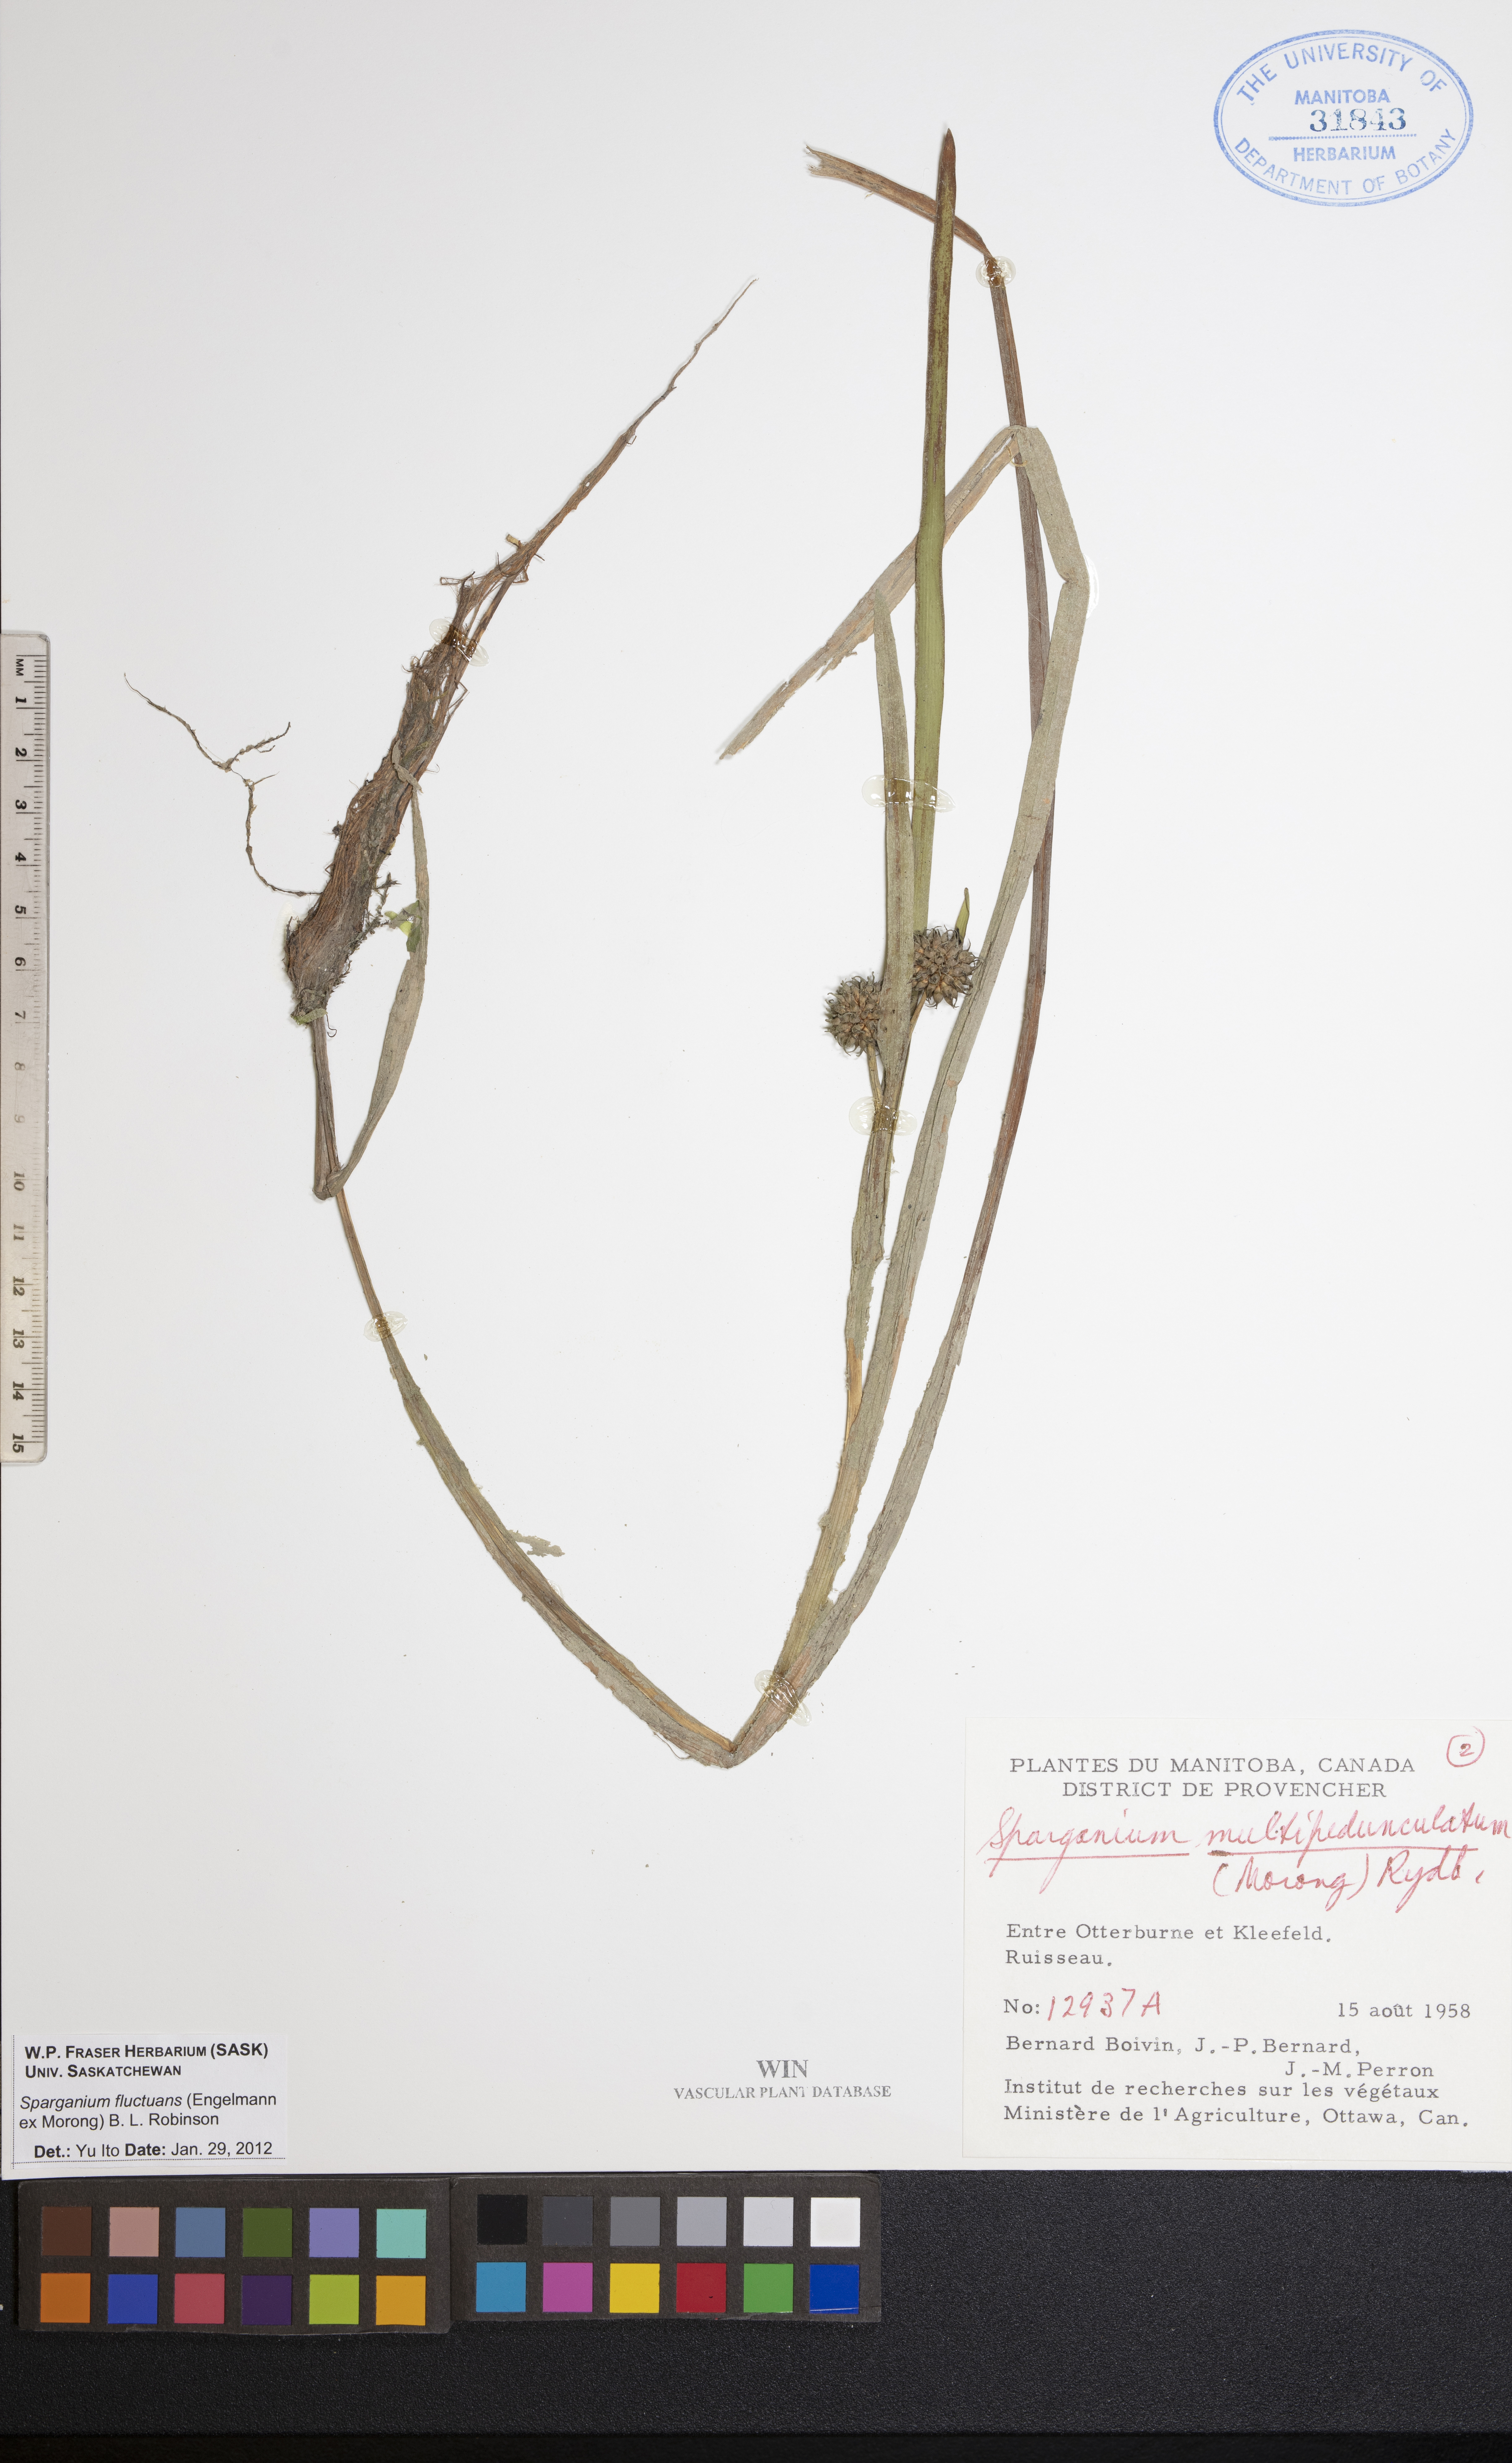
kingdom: Plantae
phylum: Tracheophyta
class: Liliopsida
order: Poales
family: Typhaceae
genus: Sparganium
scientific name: Sparganium fluctuans
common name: Floating burreed
